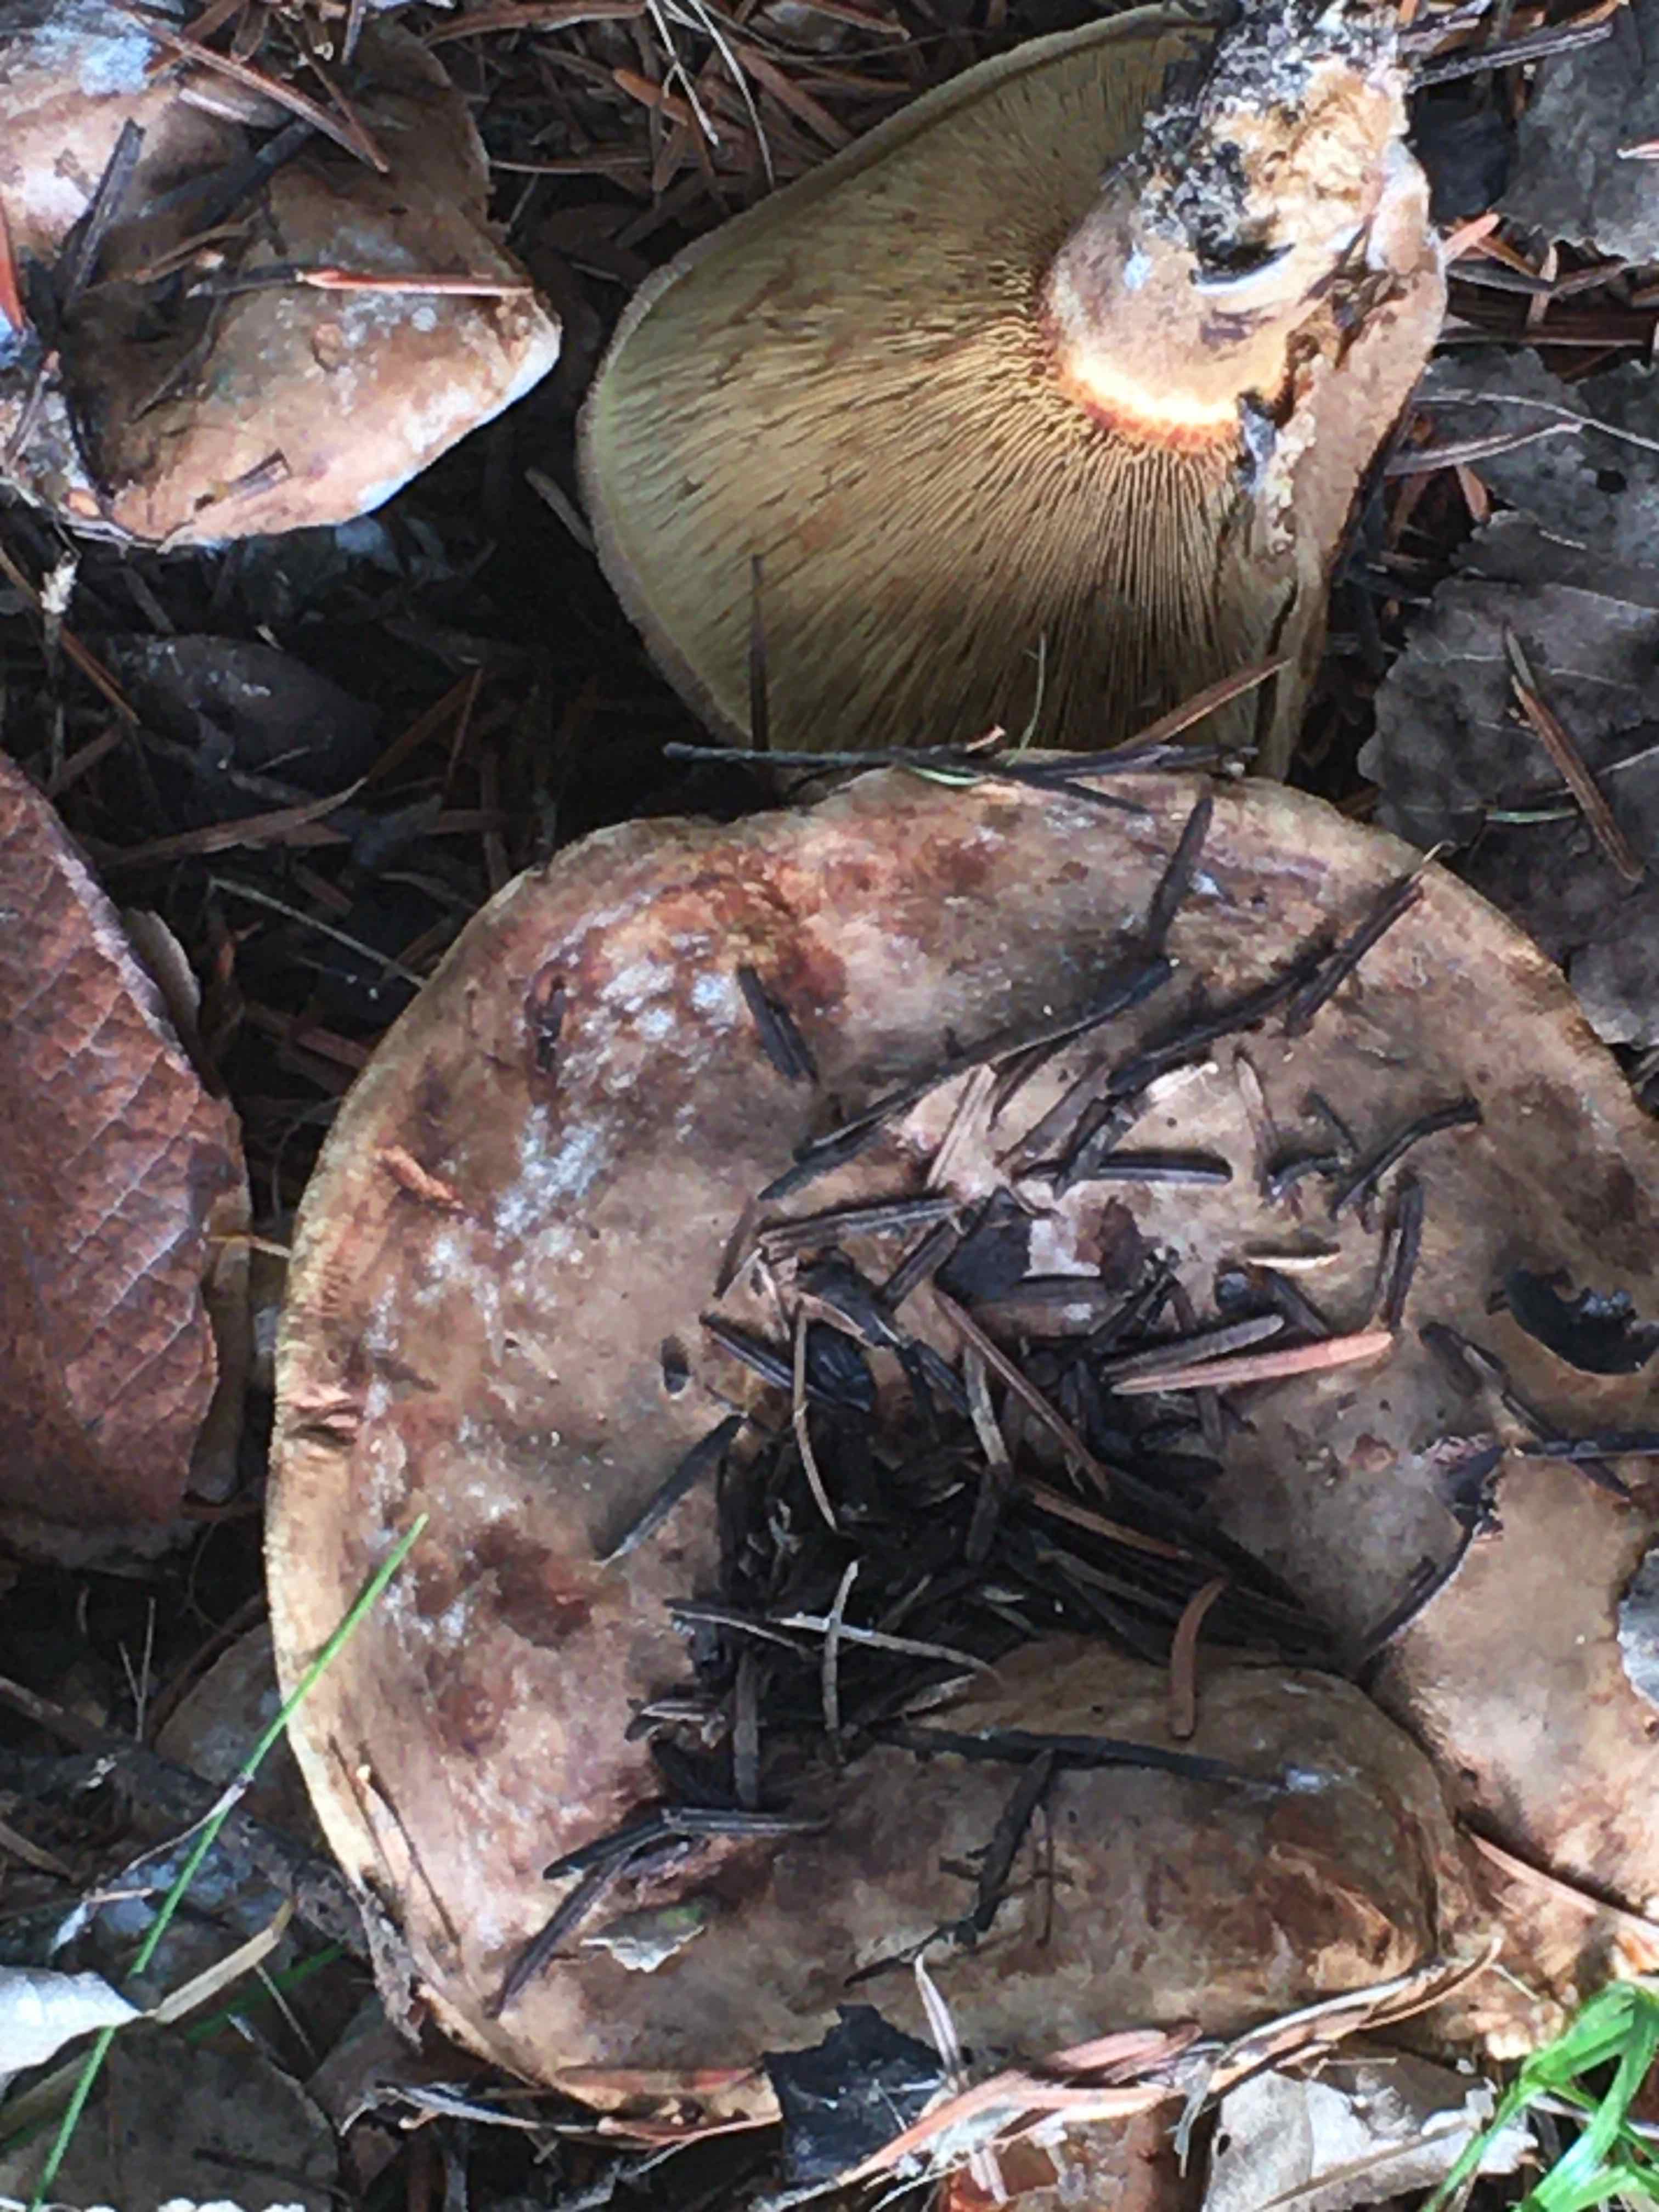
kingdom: Fungi
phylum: Basidiomycota
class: Agaricomycetes
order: Boletales
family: Paxillaceae
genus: Paxillus
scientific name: Paxillus involutus
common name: almindelig netbladhat
